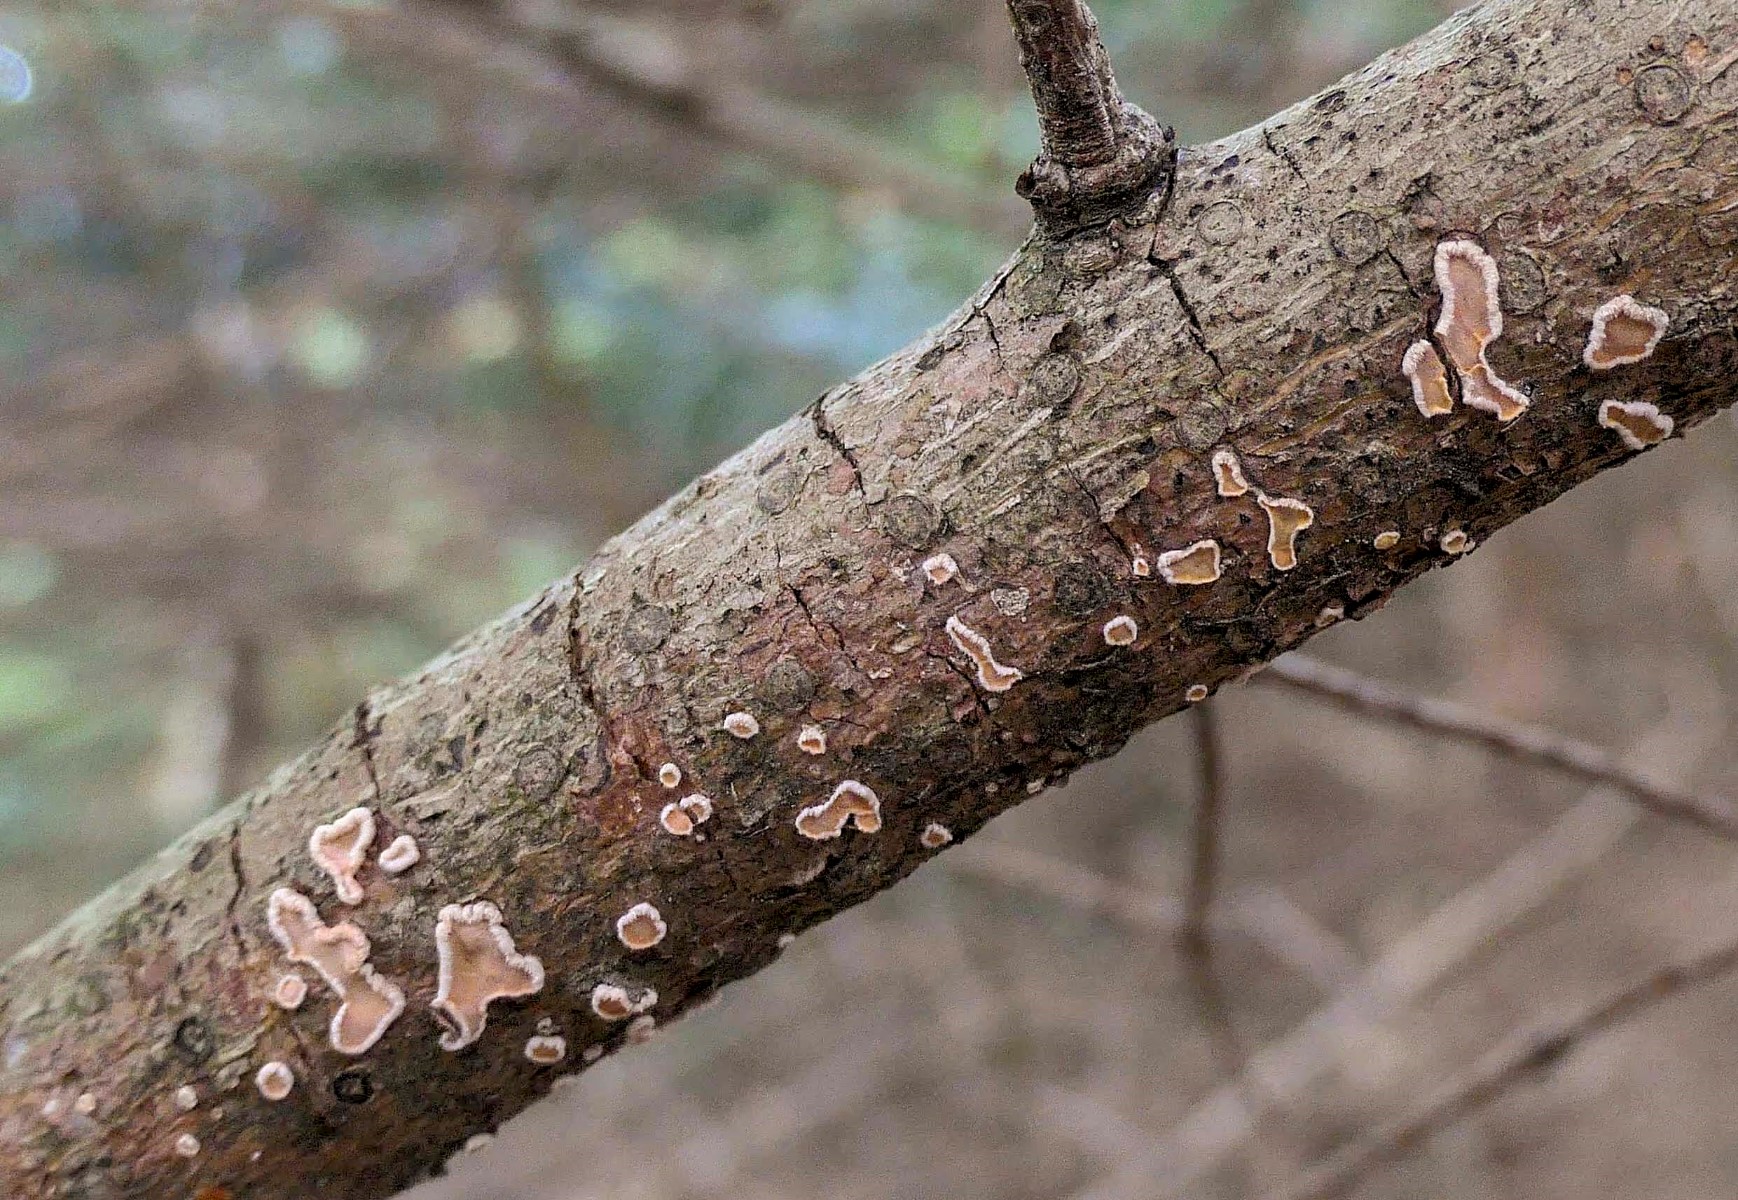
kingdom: Fungi
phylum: Basidiomycota
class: Agaricomycetes
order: Russulales
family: Stereaceae
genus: Aleurodiscus
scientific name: Aleurodiscus amorphus
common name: orange skiveskorpe
